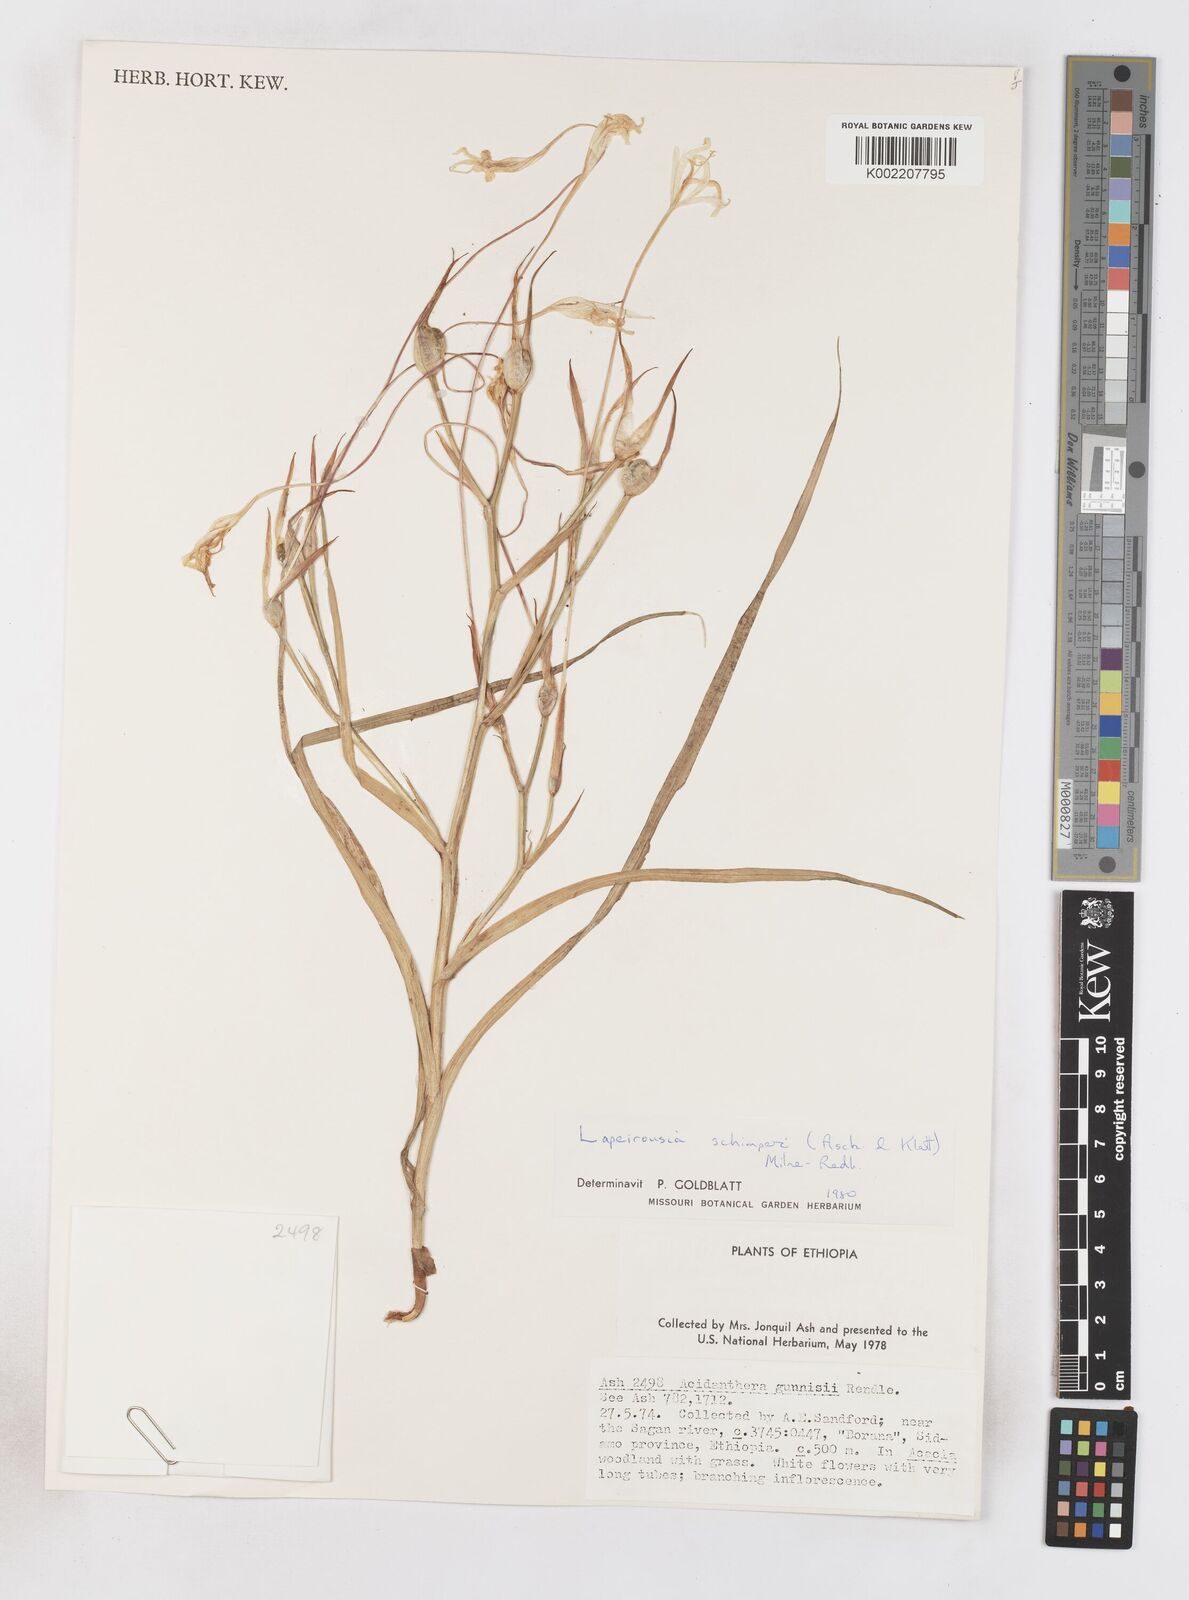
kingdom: Plantae
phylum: Tracheophyta
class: Liliopsida
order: Asparagales
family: Iridaceae
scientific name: Iridaceae
